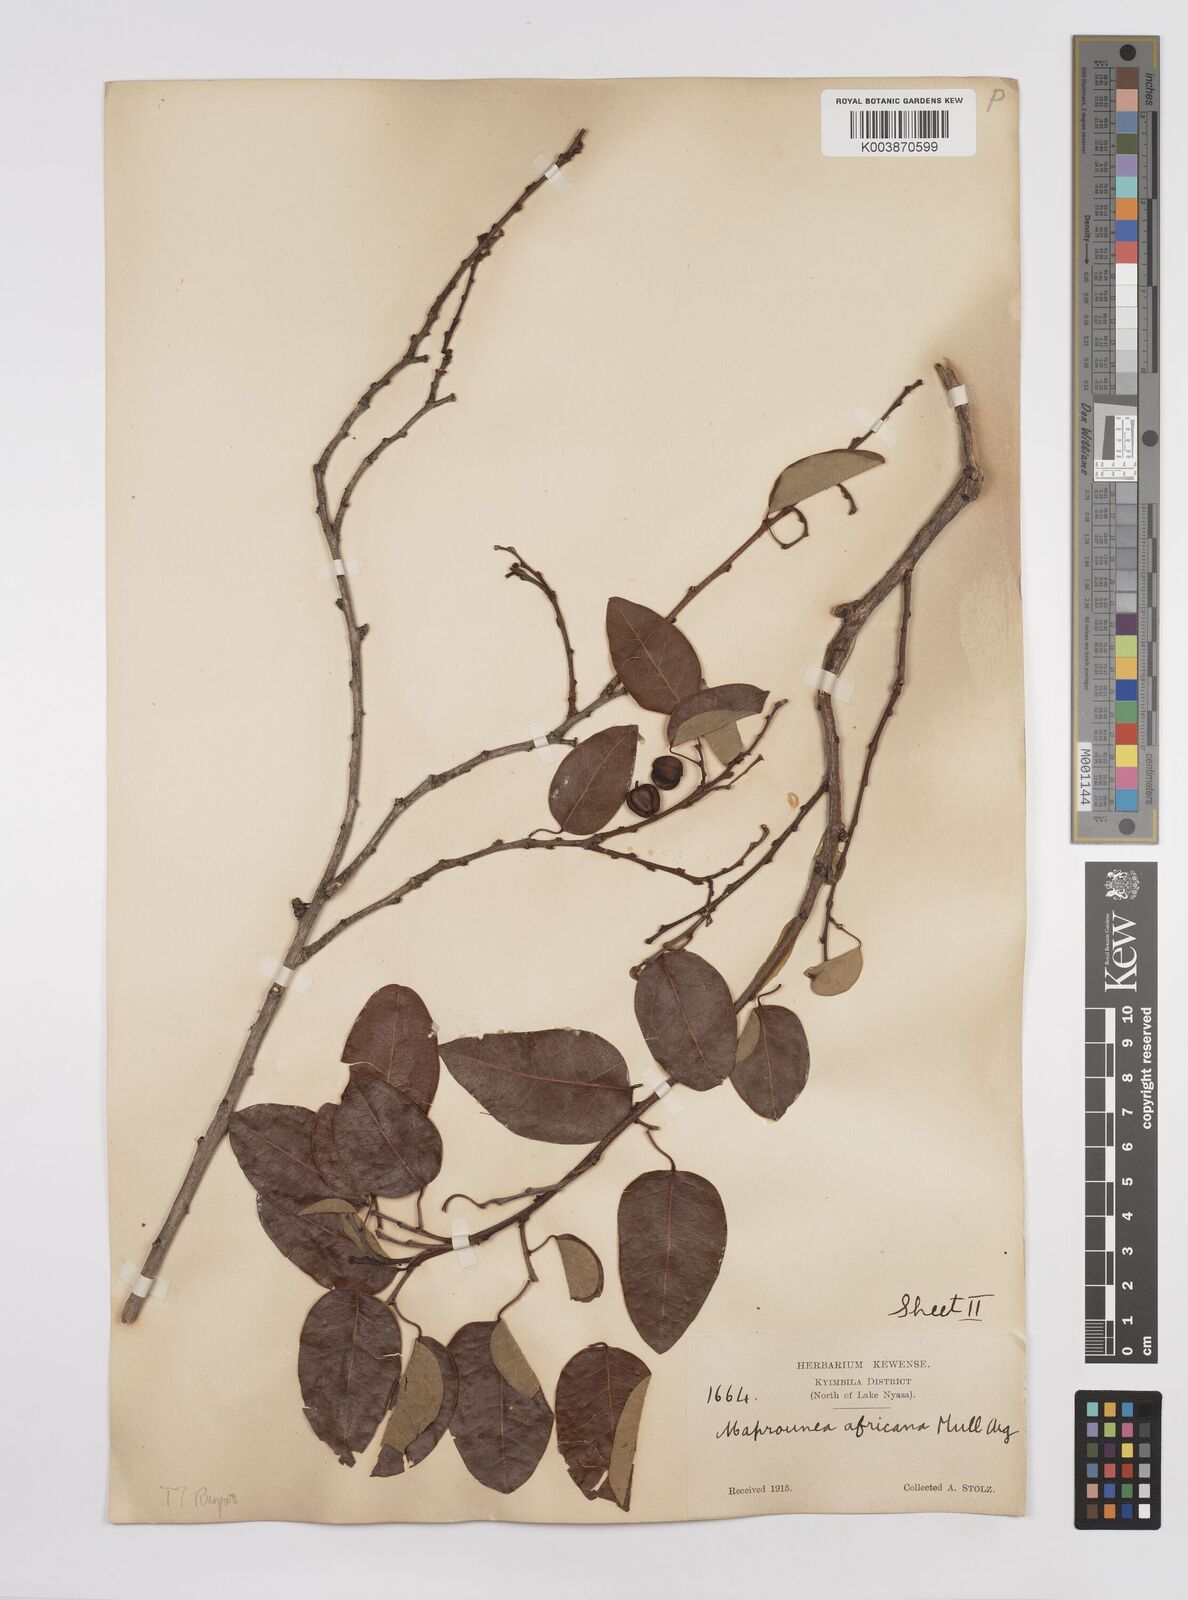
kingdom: Plantae
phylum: Tracheophyta
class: Magnoliopsida
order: Malpighiales
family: Euphorbiaceae
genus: Maprounea
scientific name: Maprounea africana
